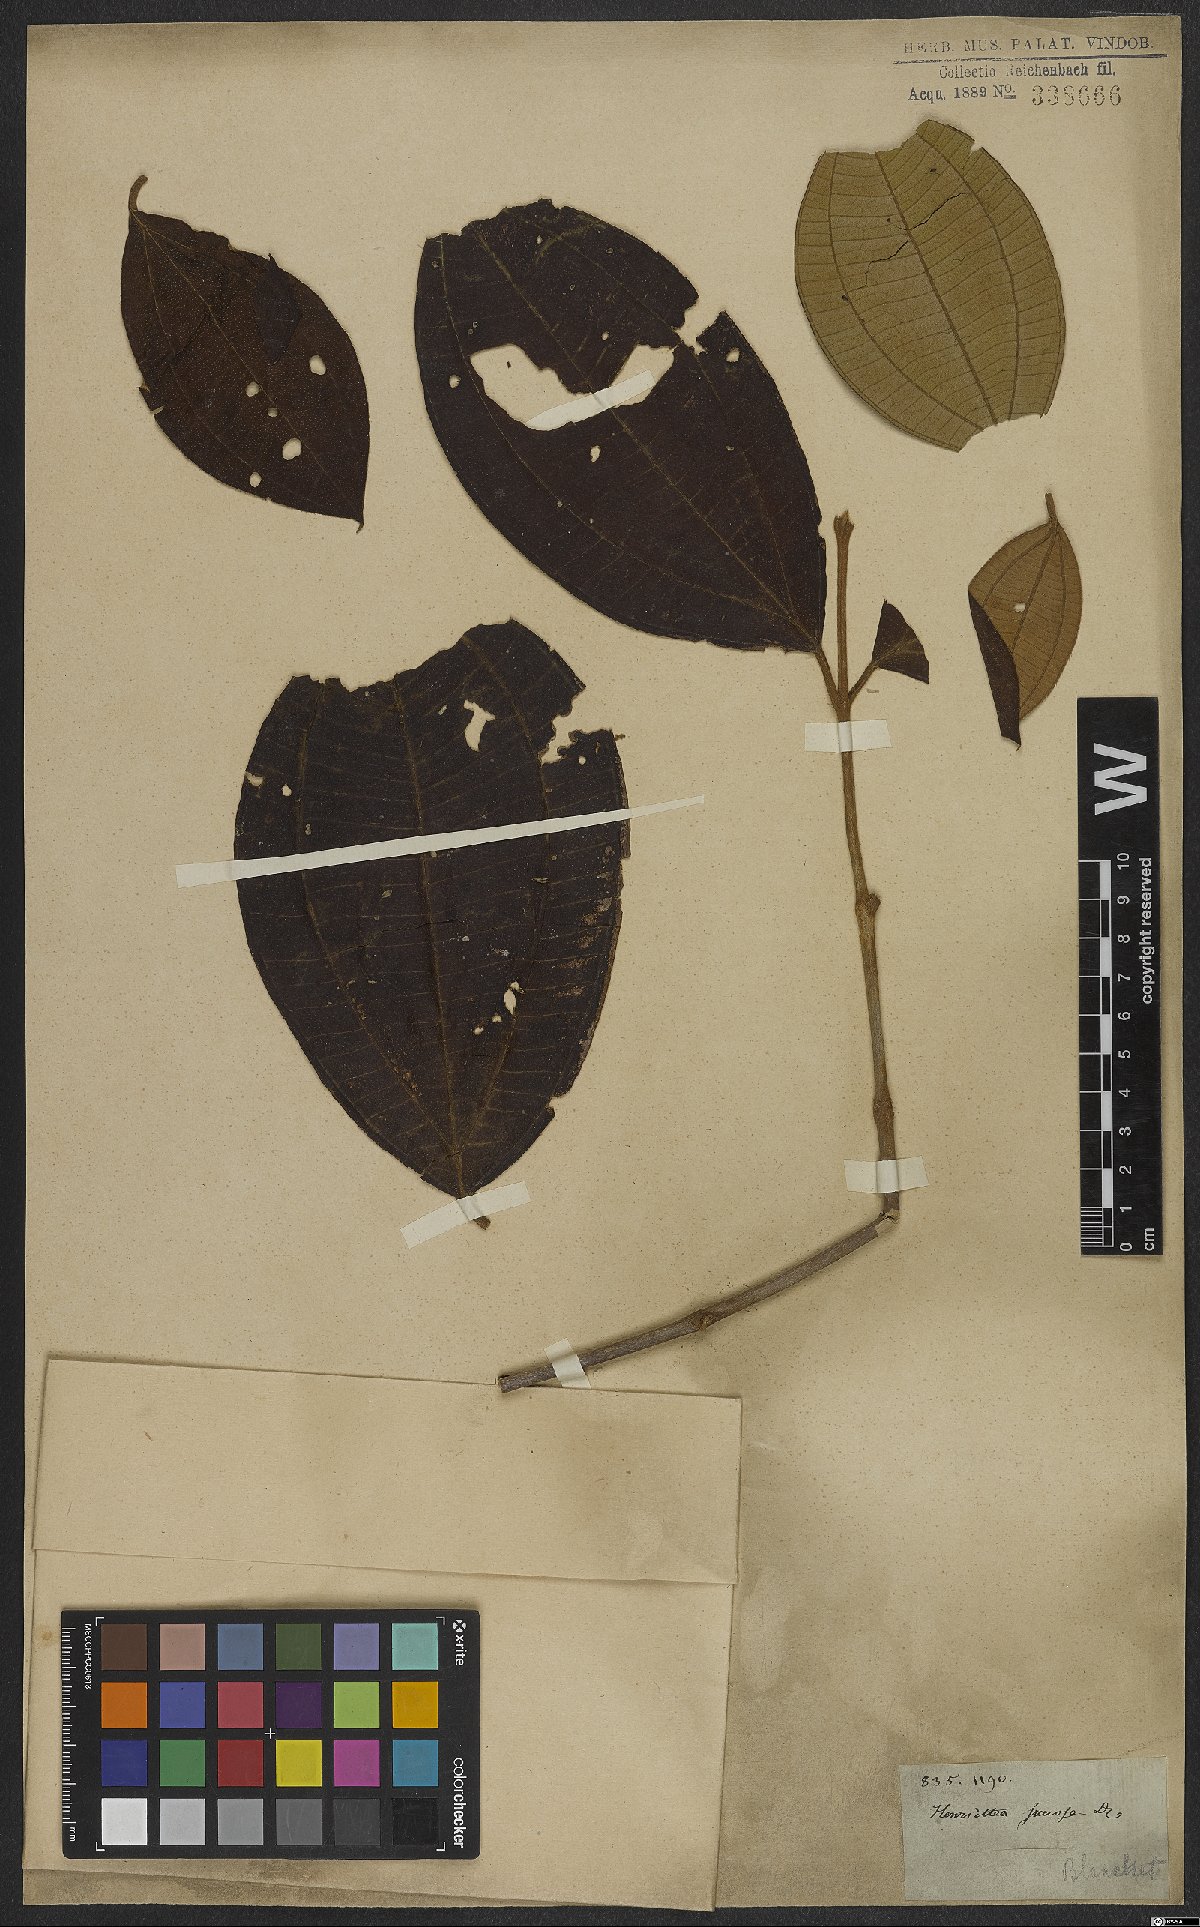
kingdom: Plantae
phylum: Tracheophyta
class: Magnoliopsida
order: Myrtales
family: Melastomataceae
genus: Henriettea
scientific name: Henriettea succosa
